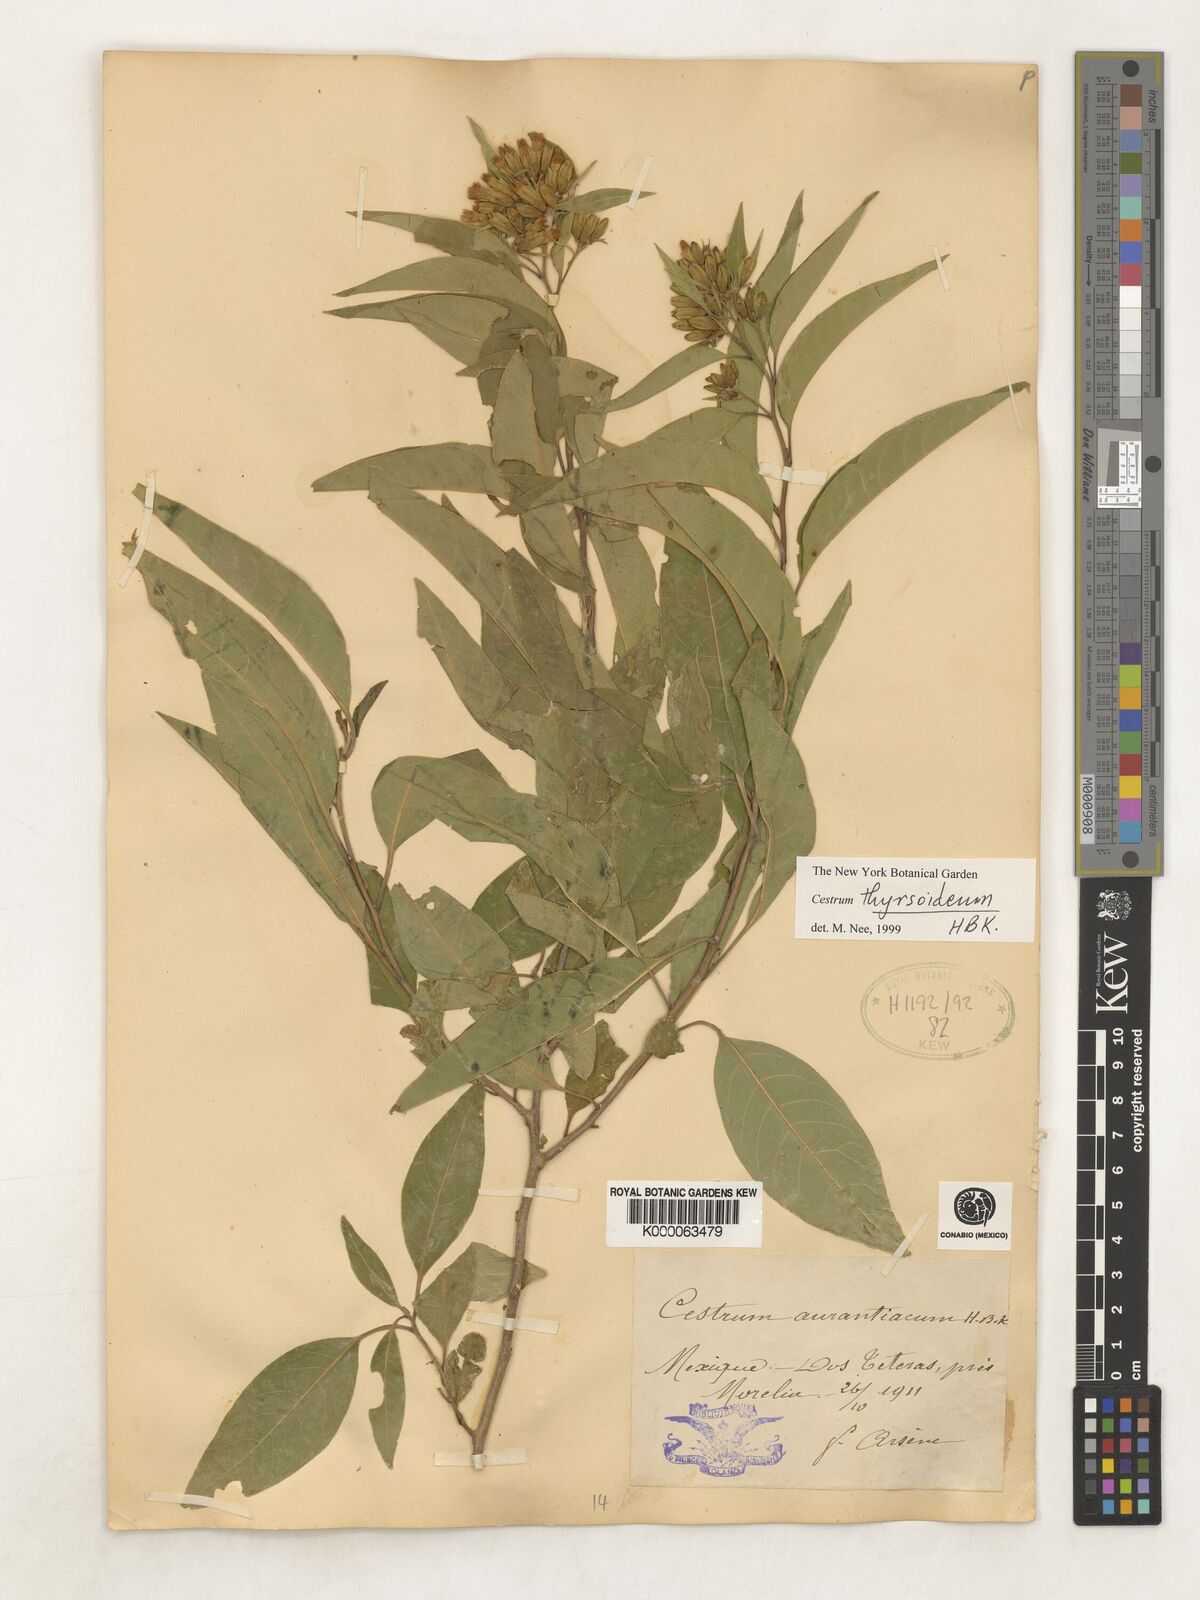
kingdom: Plantae
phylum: Tracheophyta
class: Magnoliopsida
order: Solanales
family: Solanaceae
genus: Cestrum
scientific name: Cestrum
